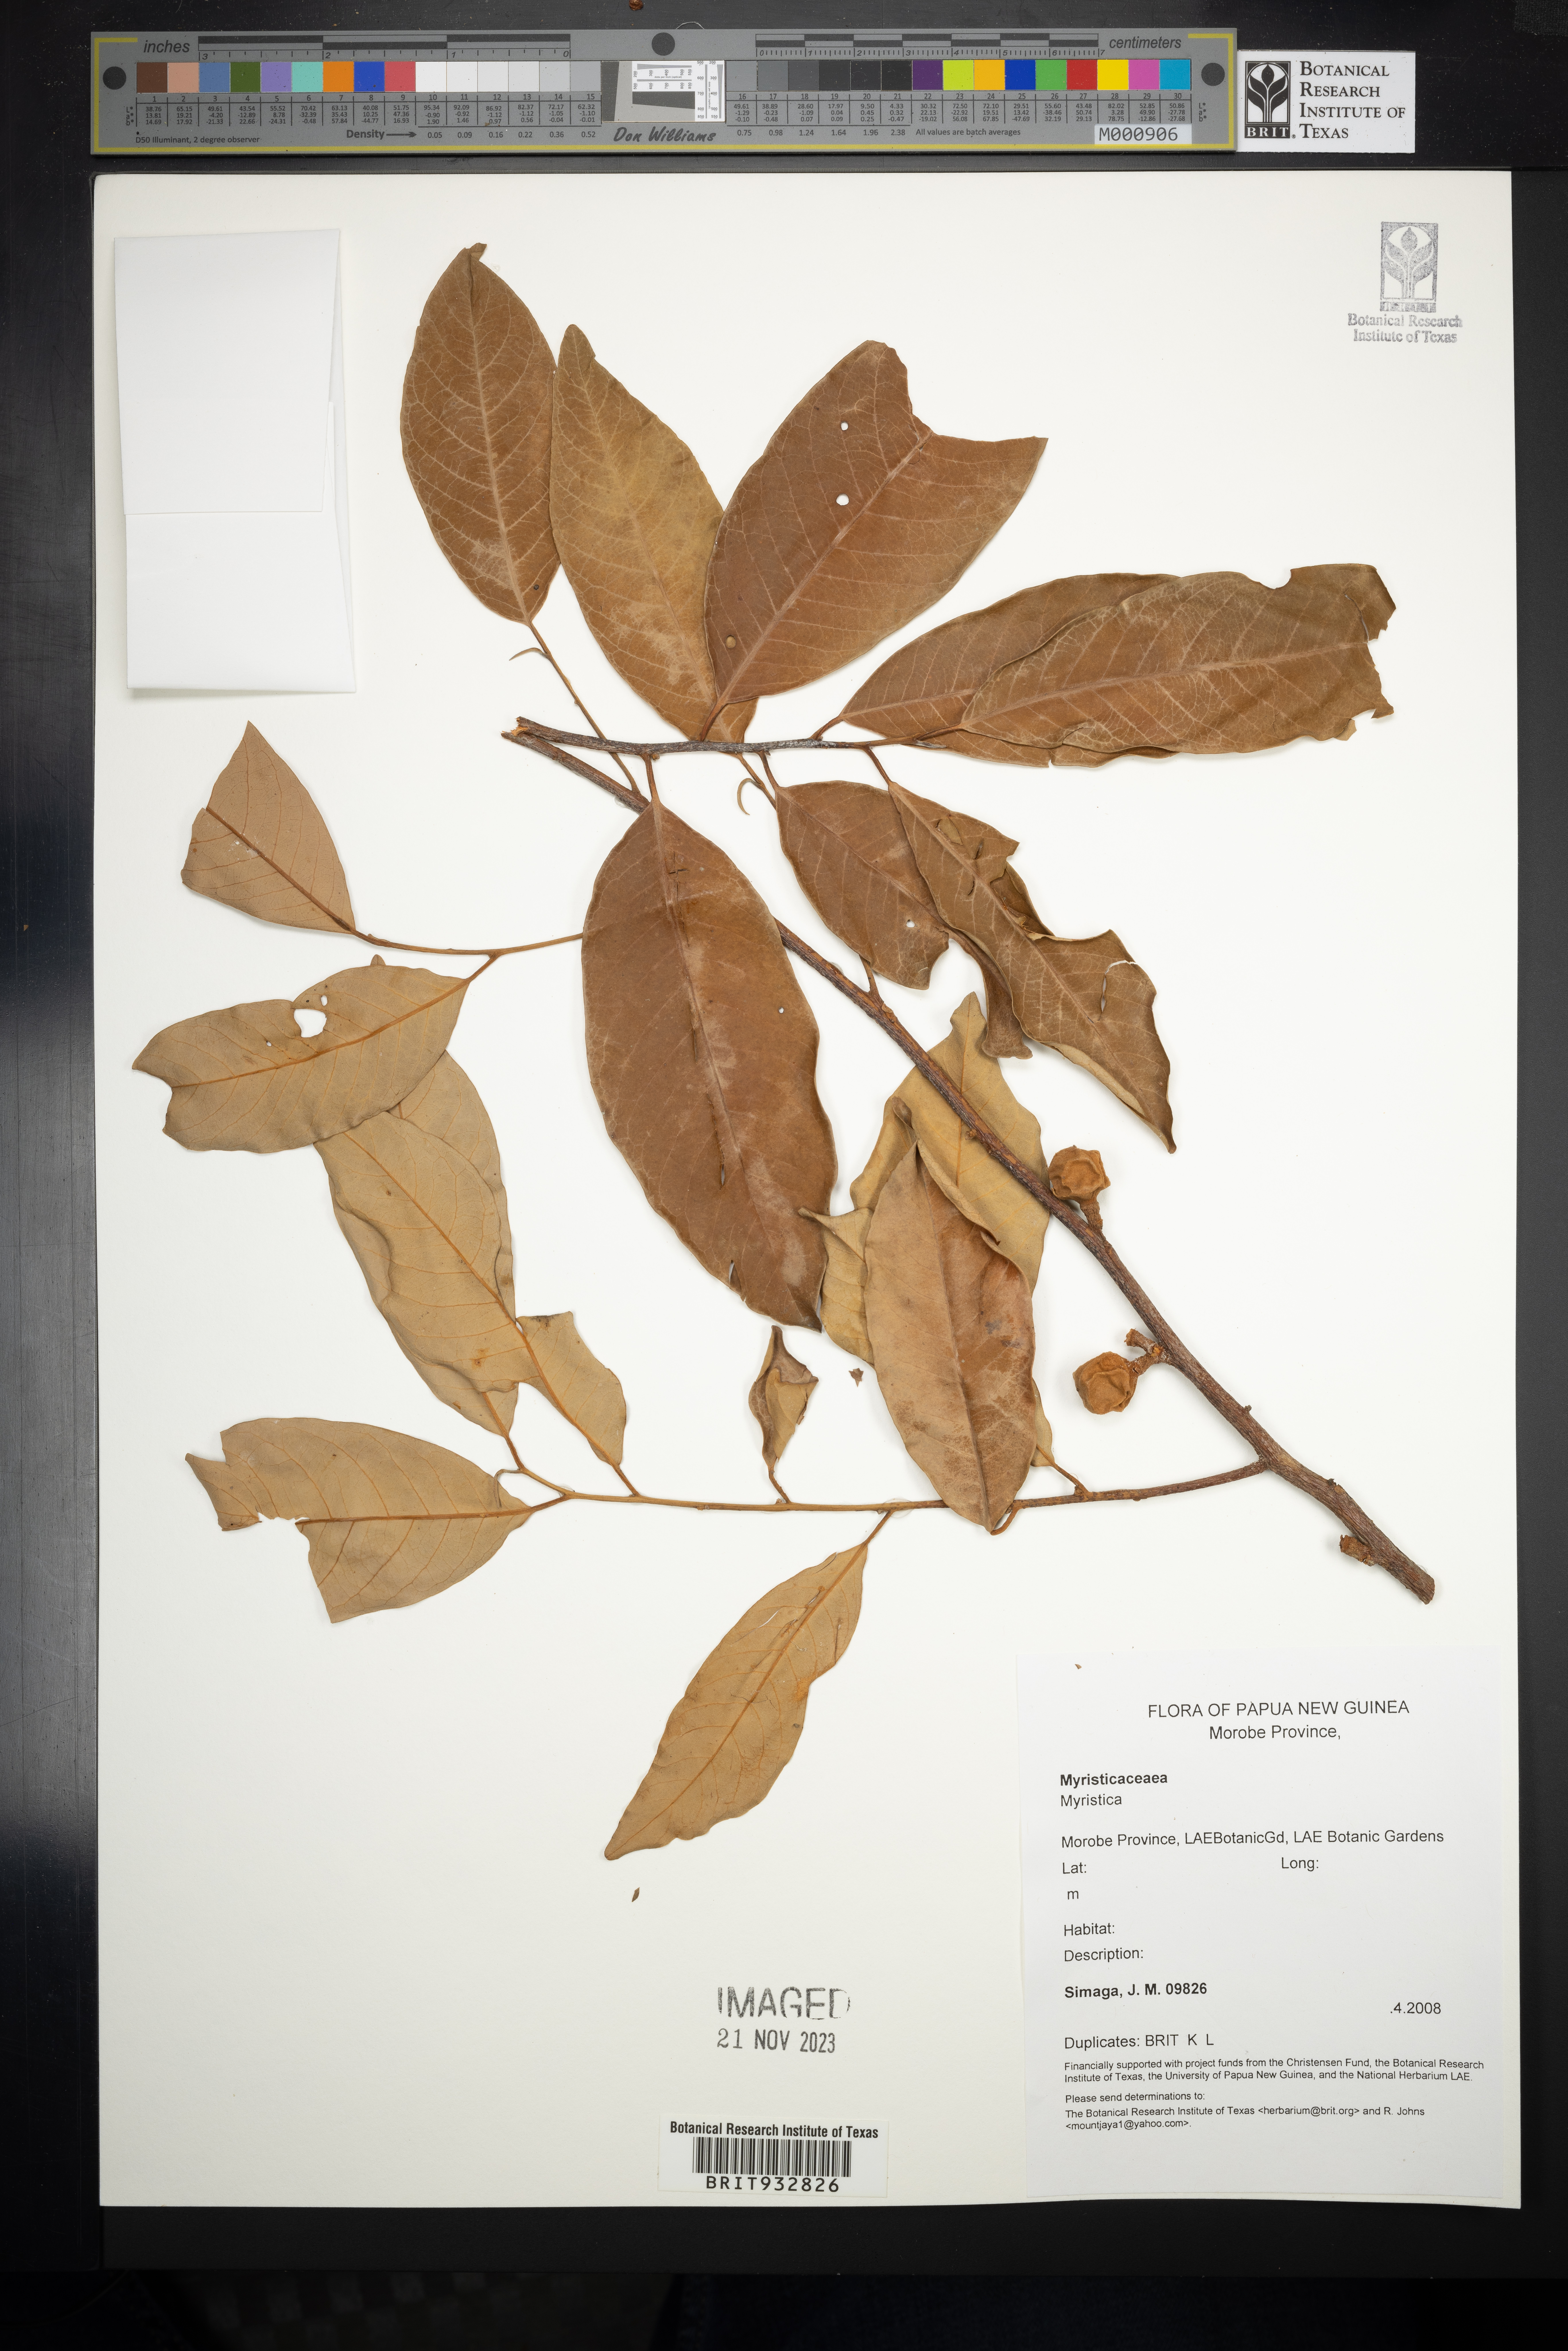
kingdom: Plantae
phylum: Tracheophyta
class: Magnoliopsida
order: Magnoliales
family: Myristicaceae
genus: Myristica
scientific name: Myristica
